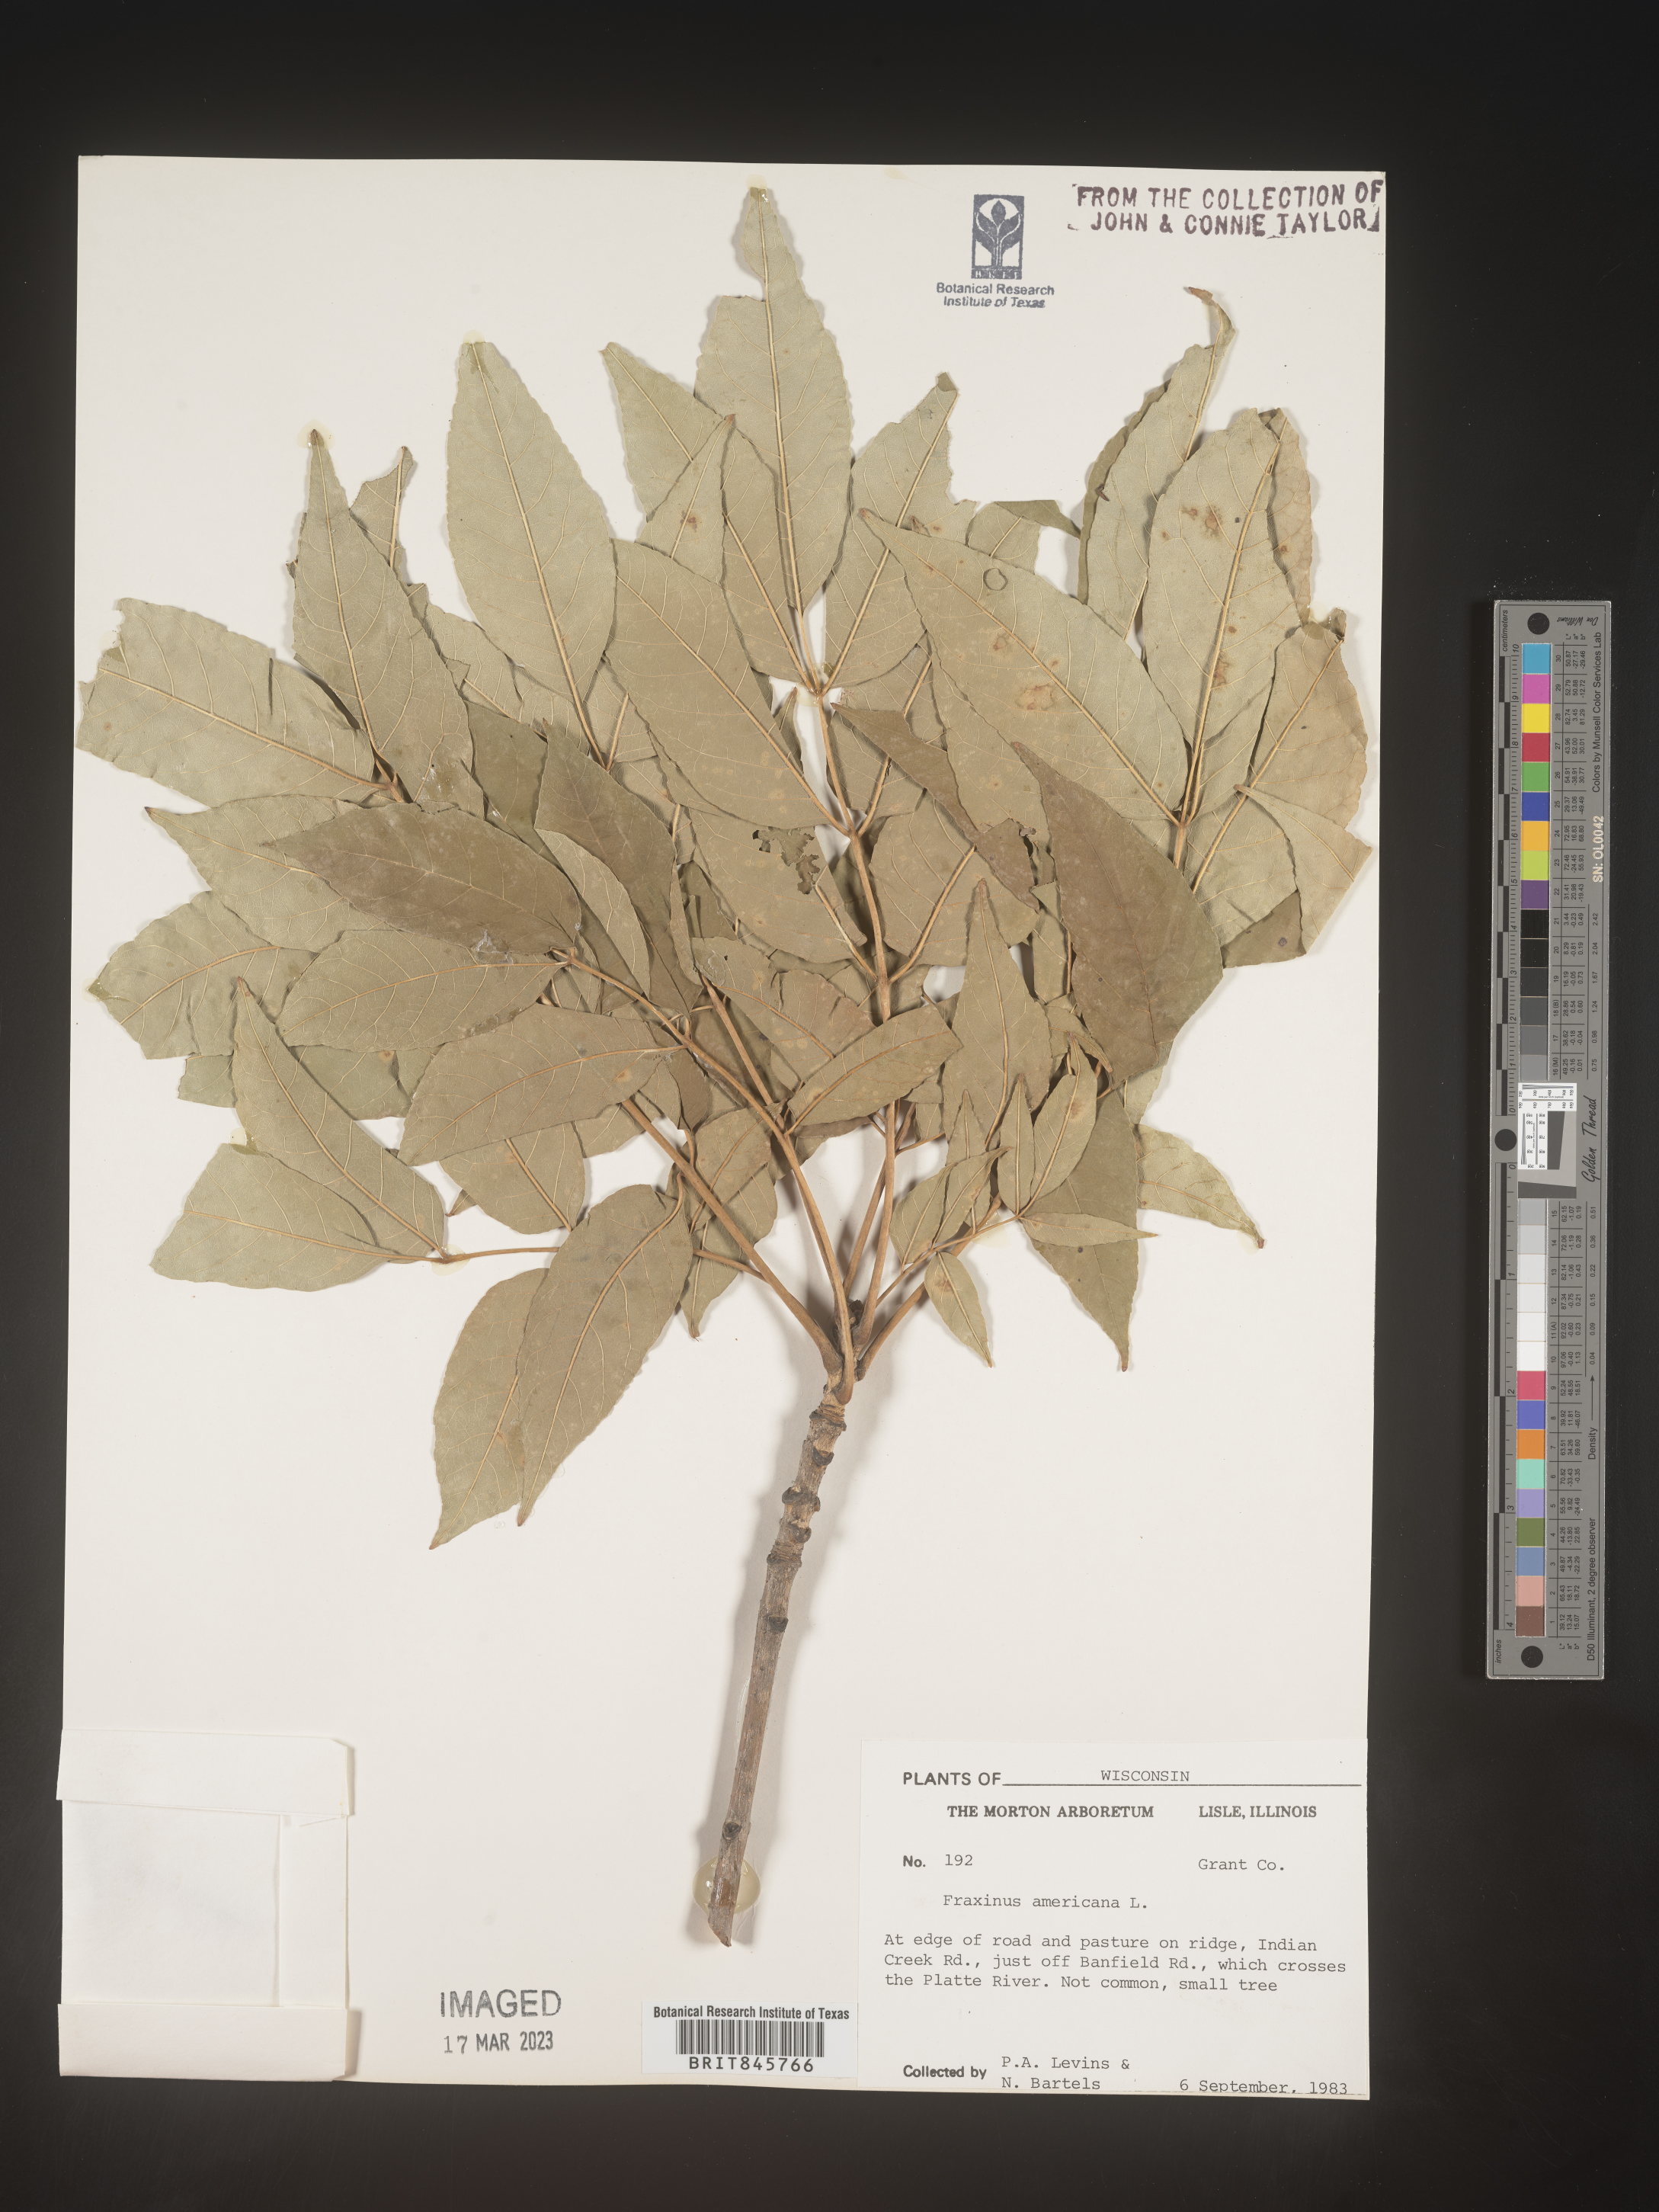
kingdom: Plantae
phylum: Tracheophyta
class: Magnoliopsida
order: Lamiales
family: Oleaceae
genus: Fraxinus
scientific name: Fraxinus americana
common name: White ash
